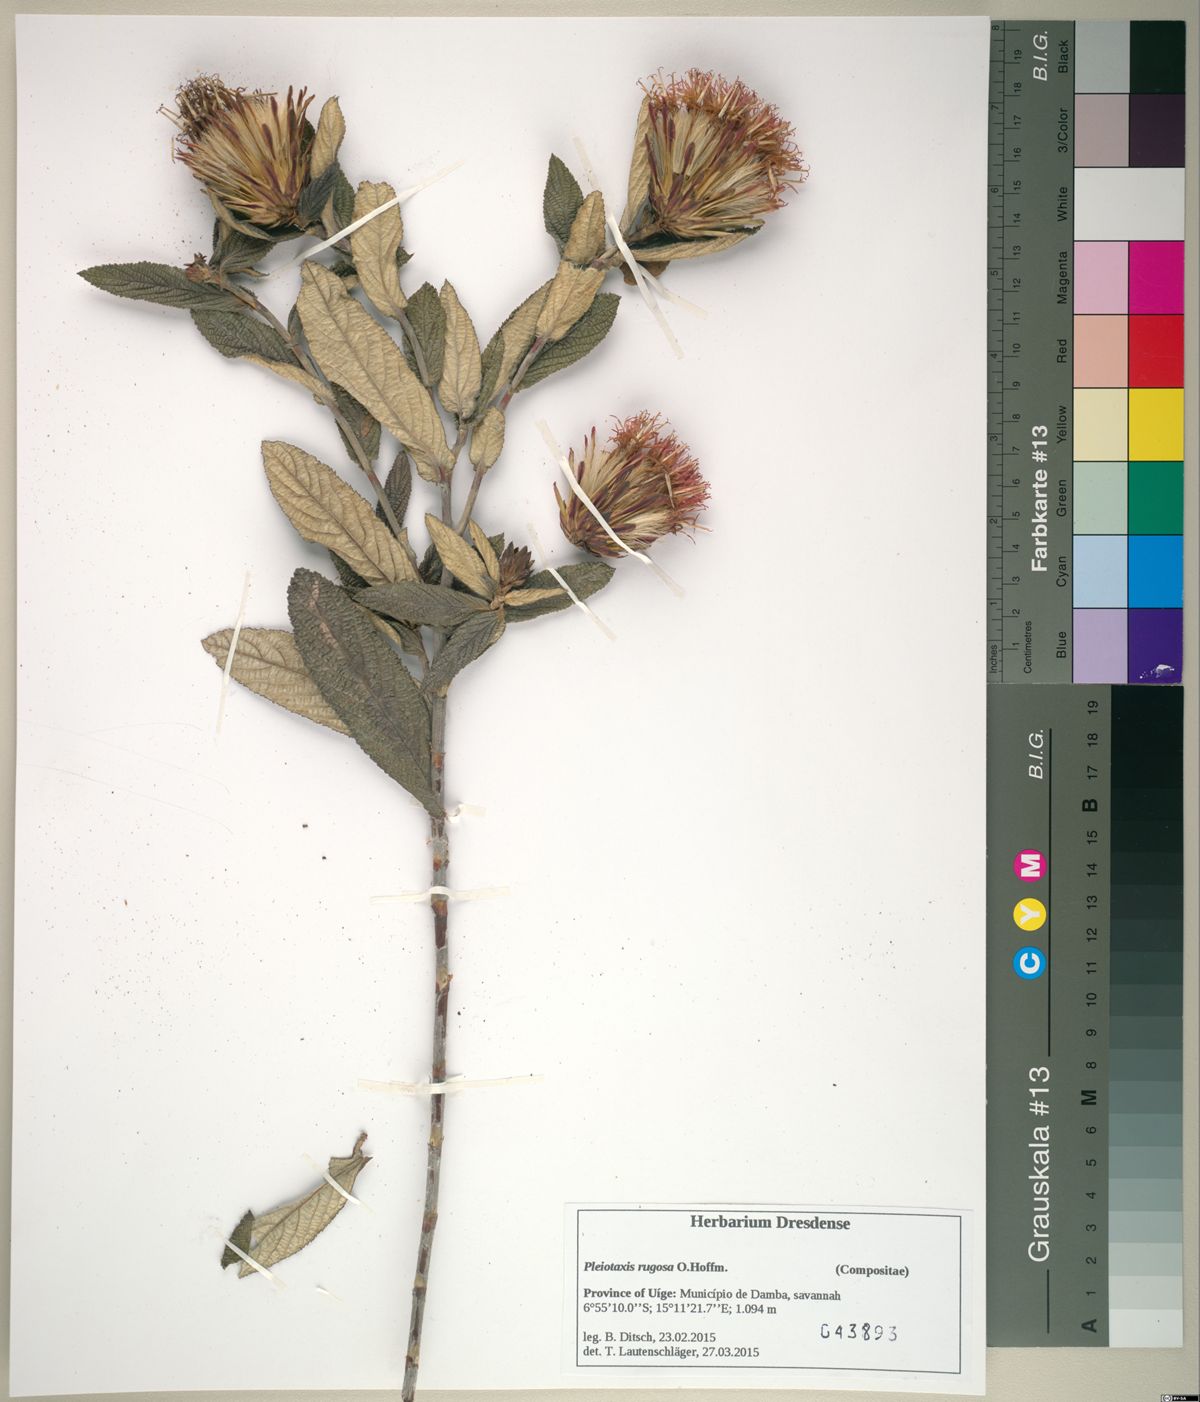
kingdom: Plantae
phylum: Tracheophyta
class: Magnoliopsida
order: Asterales
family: Asteraceae
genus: Pleiotaxis
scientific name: Pleiotaxis rugosa
